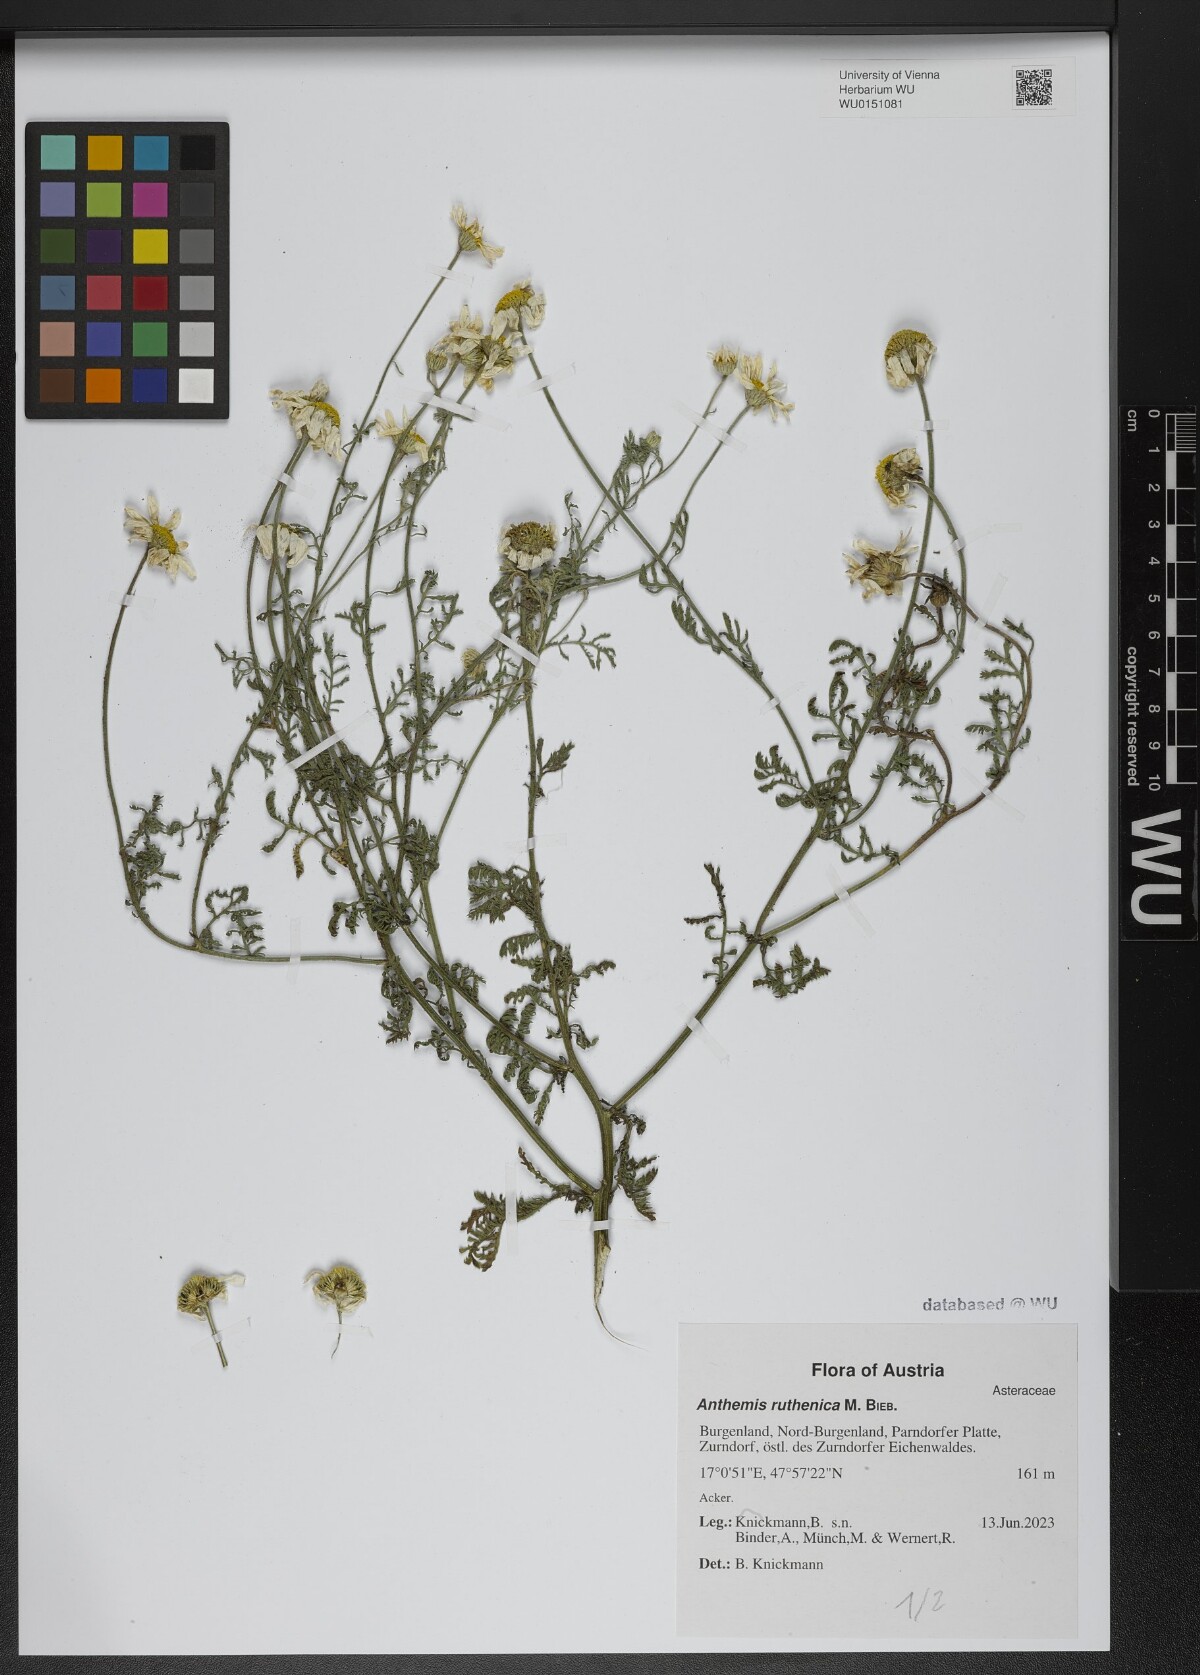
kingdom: Plantae
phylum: Tracheophyta
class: Magnoliopsida
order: Asterales
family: Asteraceae
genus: Anthemis
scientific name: Anthemis ruthenica
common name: Eastern chamomile
